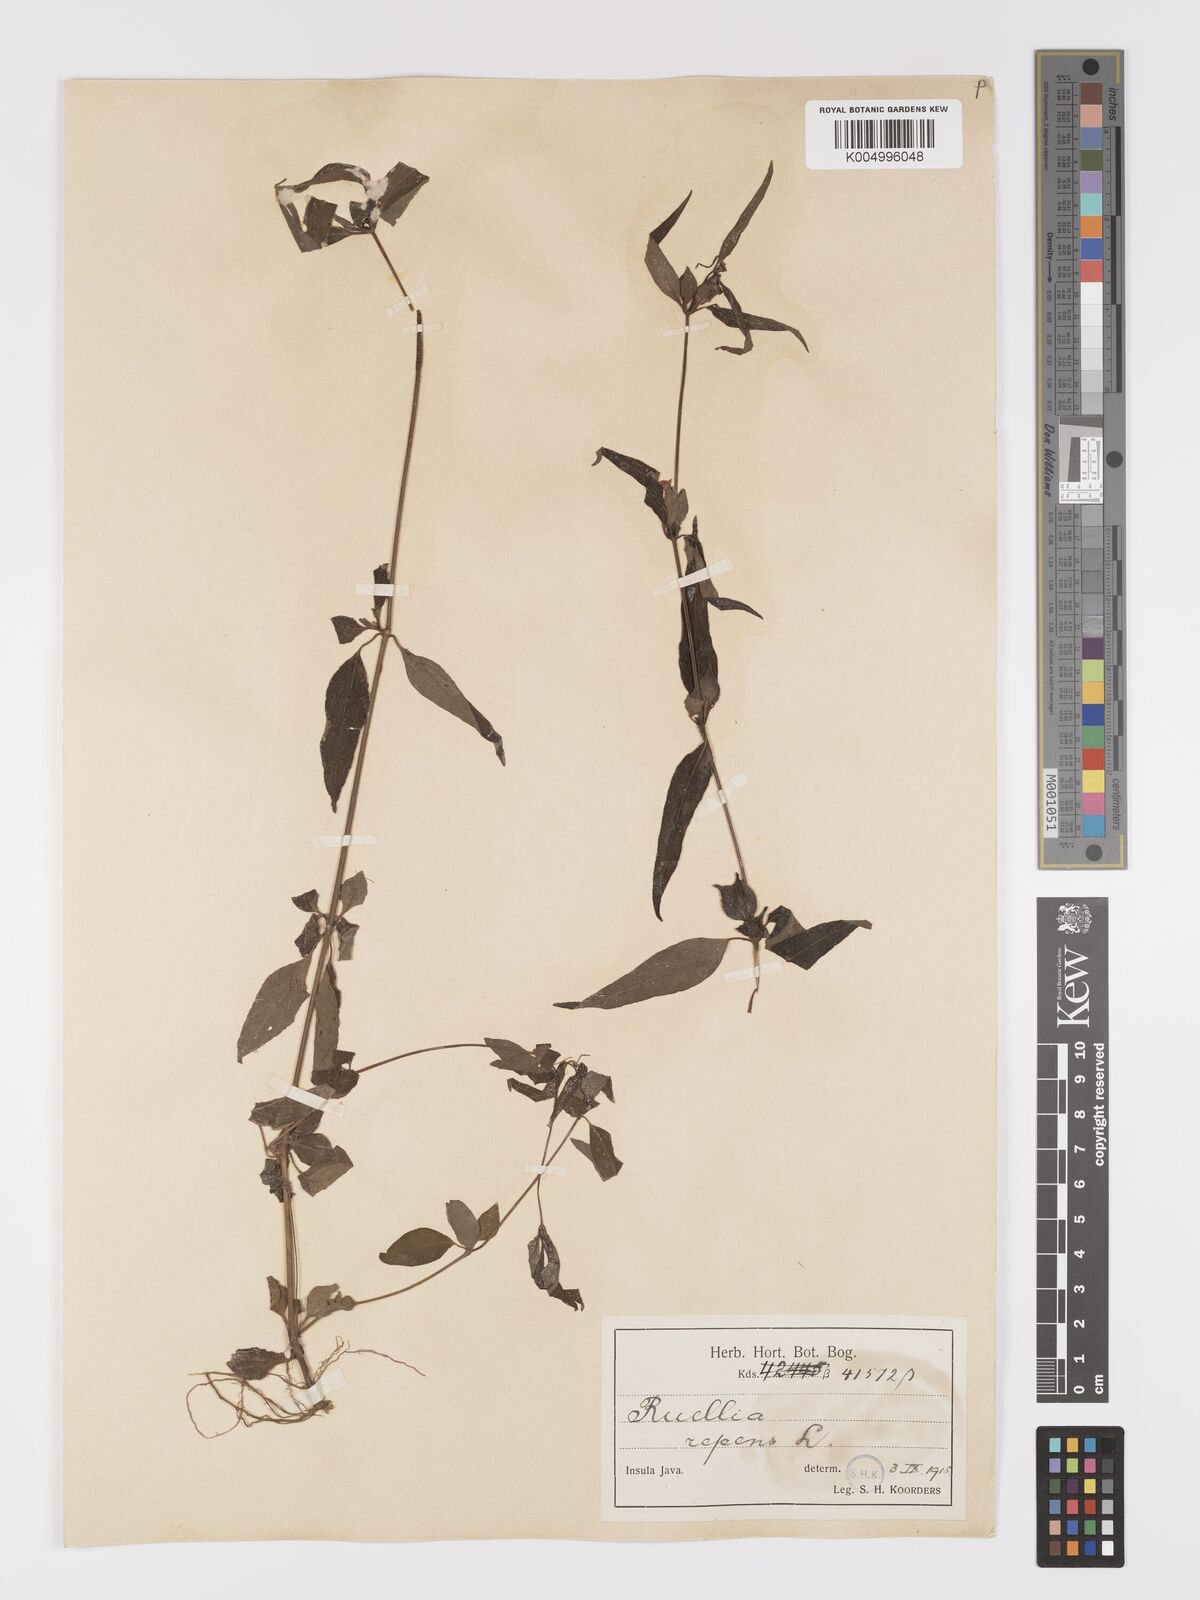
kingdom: Plantae
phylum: Tracheophyta
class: Magnoliopsida
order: Lamiales
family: Acanthaceae
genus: Ruellia
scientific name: Ruellia
